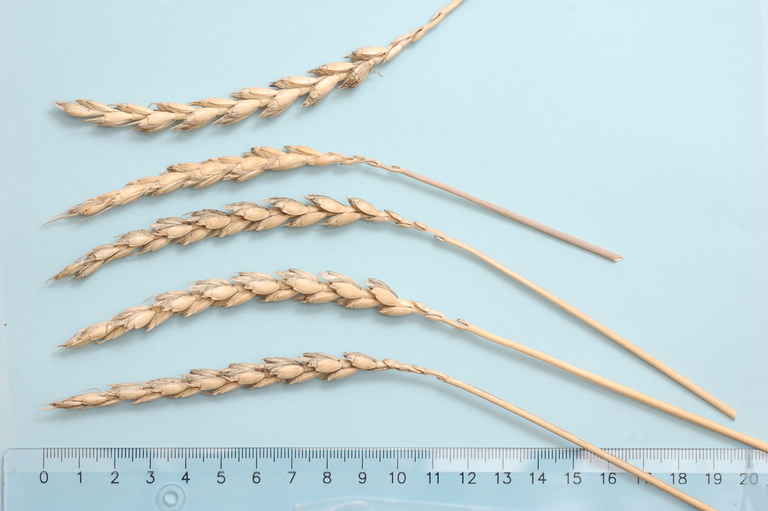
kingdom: Plantae
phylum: Tracheophyta
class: Liliopsida
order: Poales
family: Poaceae
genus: Triticum
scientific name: Triticum aestivum
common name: Common wheat
